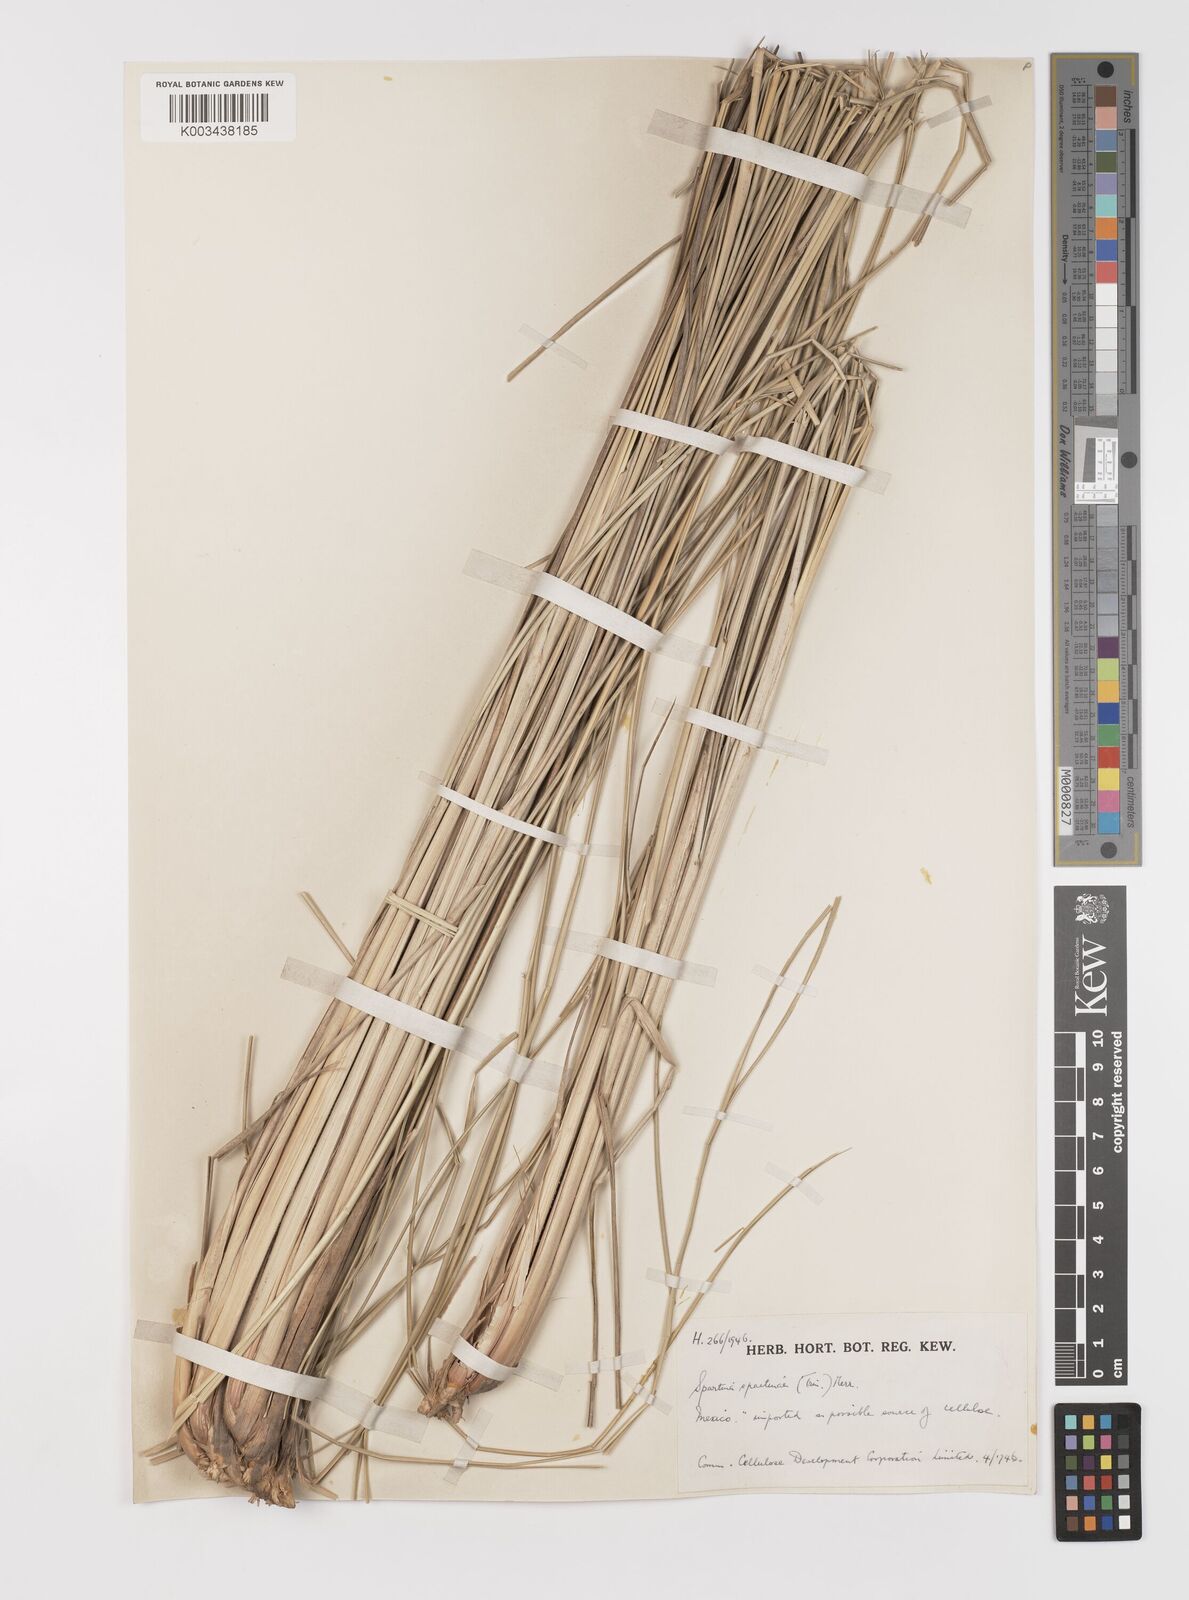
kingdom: Plantae
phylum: Tracheophyta
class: Liliopsida
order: Poales
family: Poaceae
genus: Sporobolus
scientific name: Sporobolus spartinae
